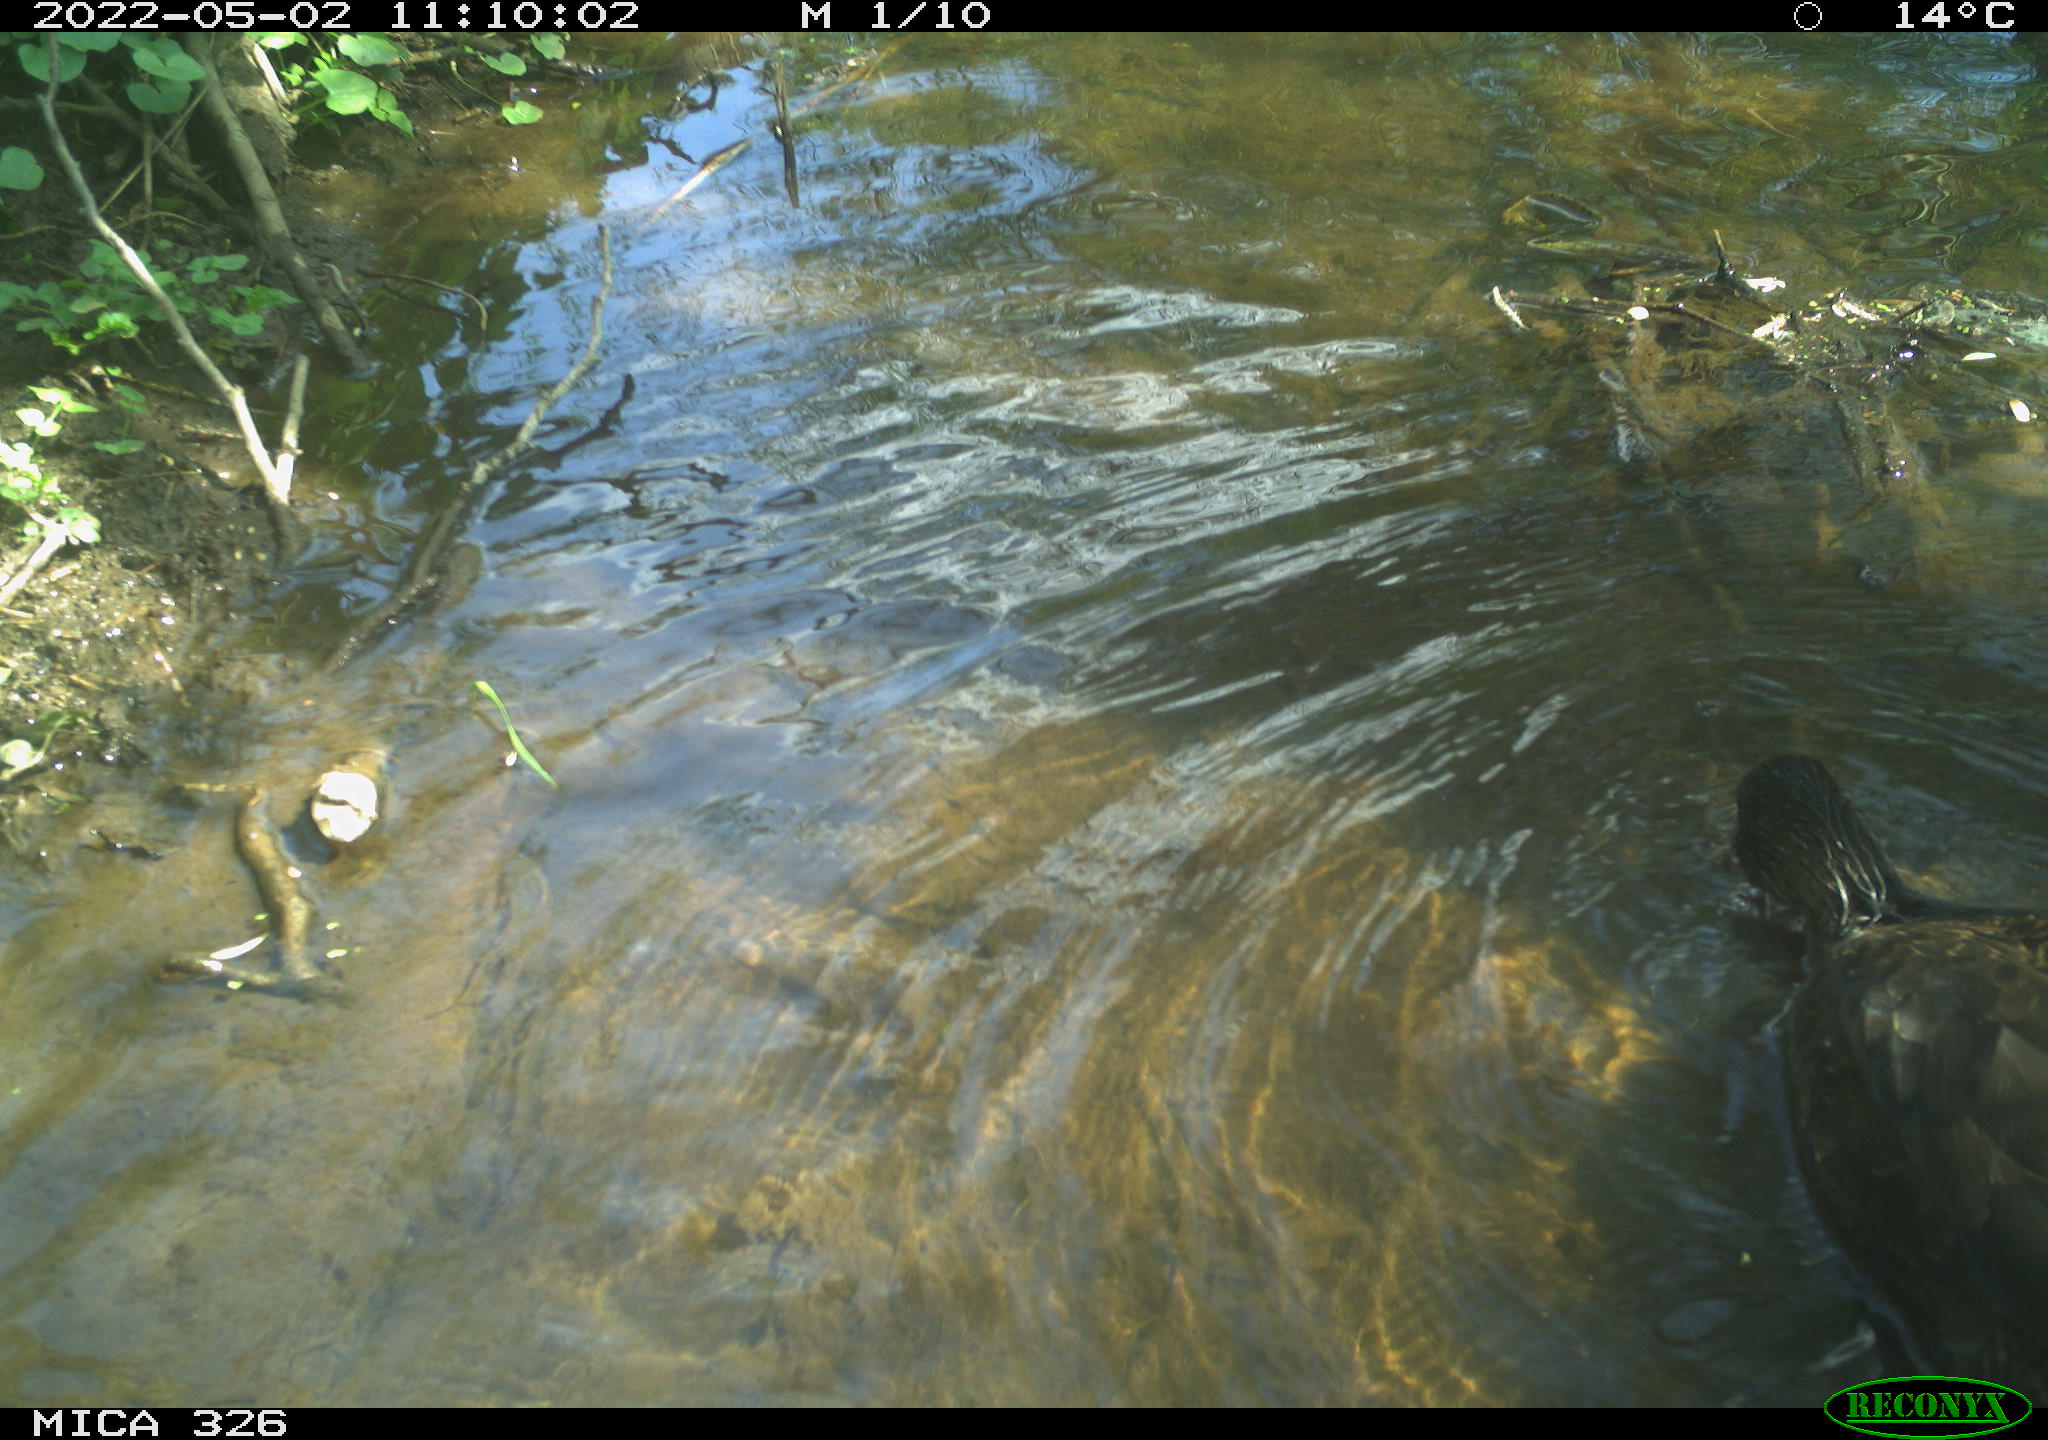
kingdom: Animalia
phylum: Chordata
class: Aves
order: Anseriformes
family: Anatidae
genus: Anas
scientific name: Anas
